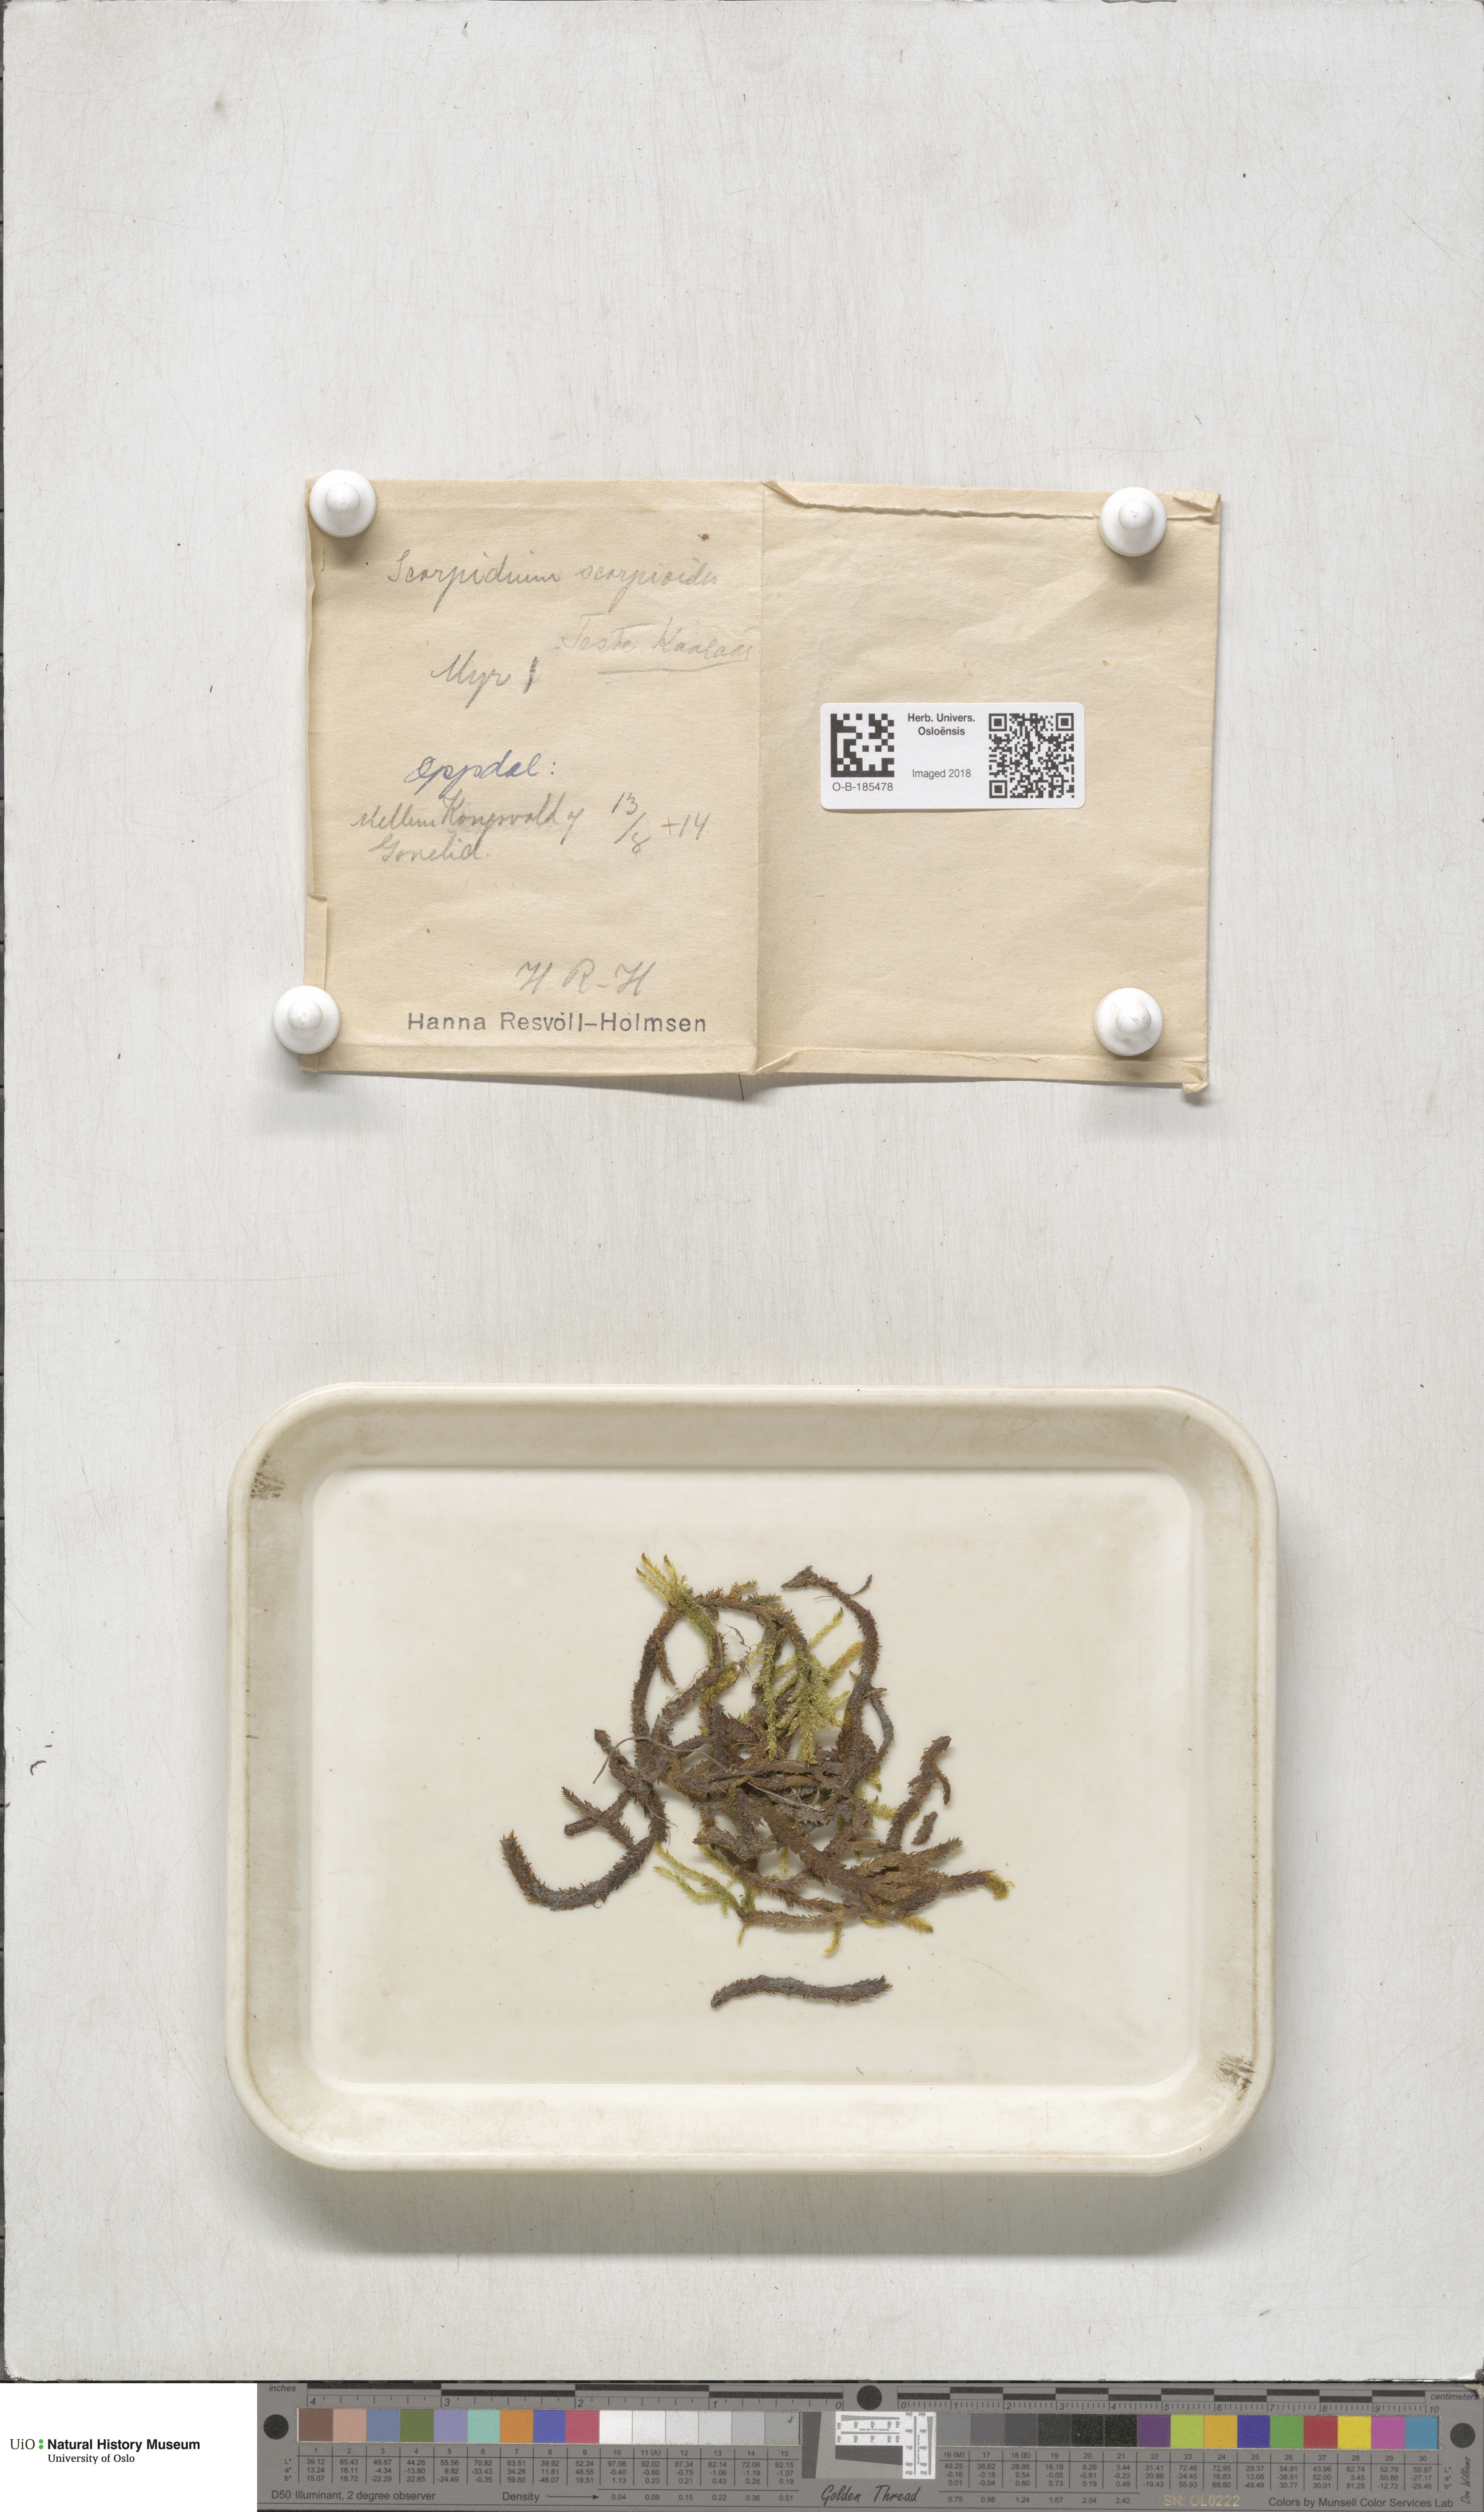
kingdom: Plantae
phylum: Bryophyta
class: Bryopsida
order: Hypnales
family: Scorpidiaceae
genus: Scorpidium
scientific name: Scorpidium scorpioides
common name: Hooked scorpion moss
